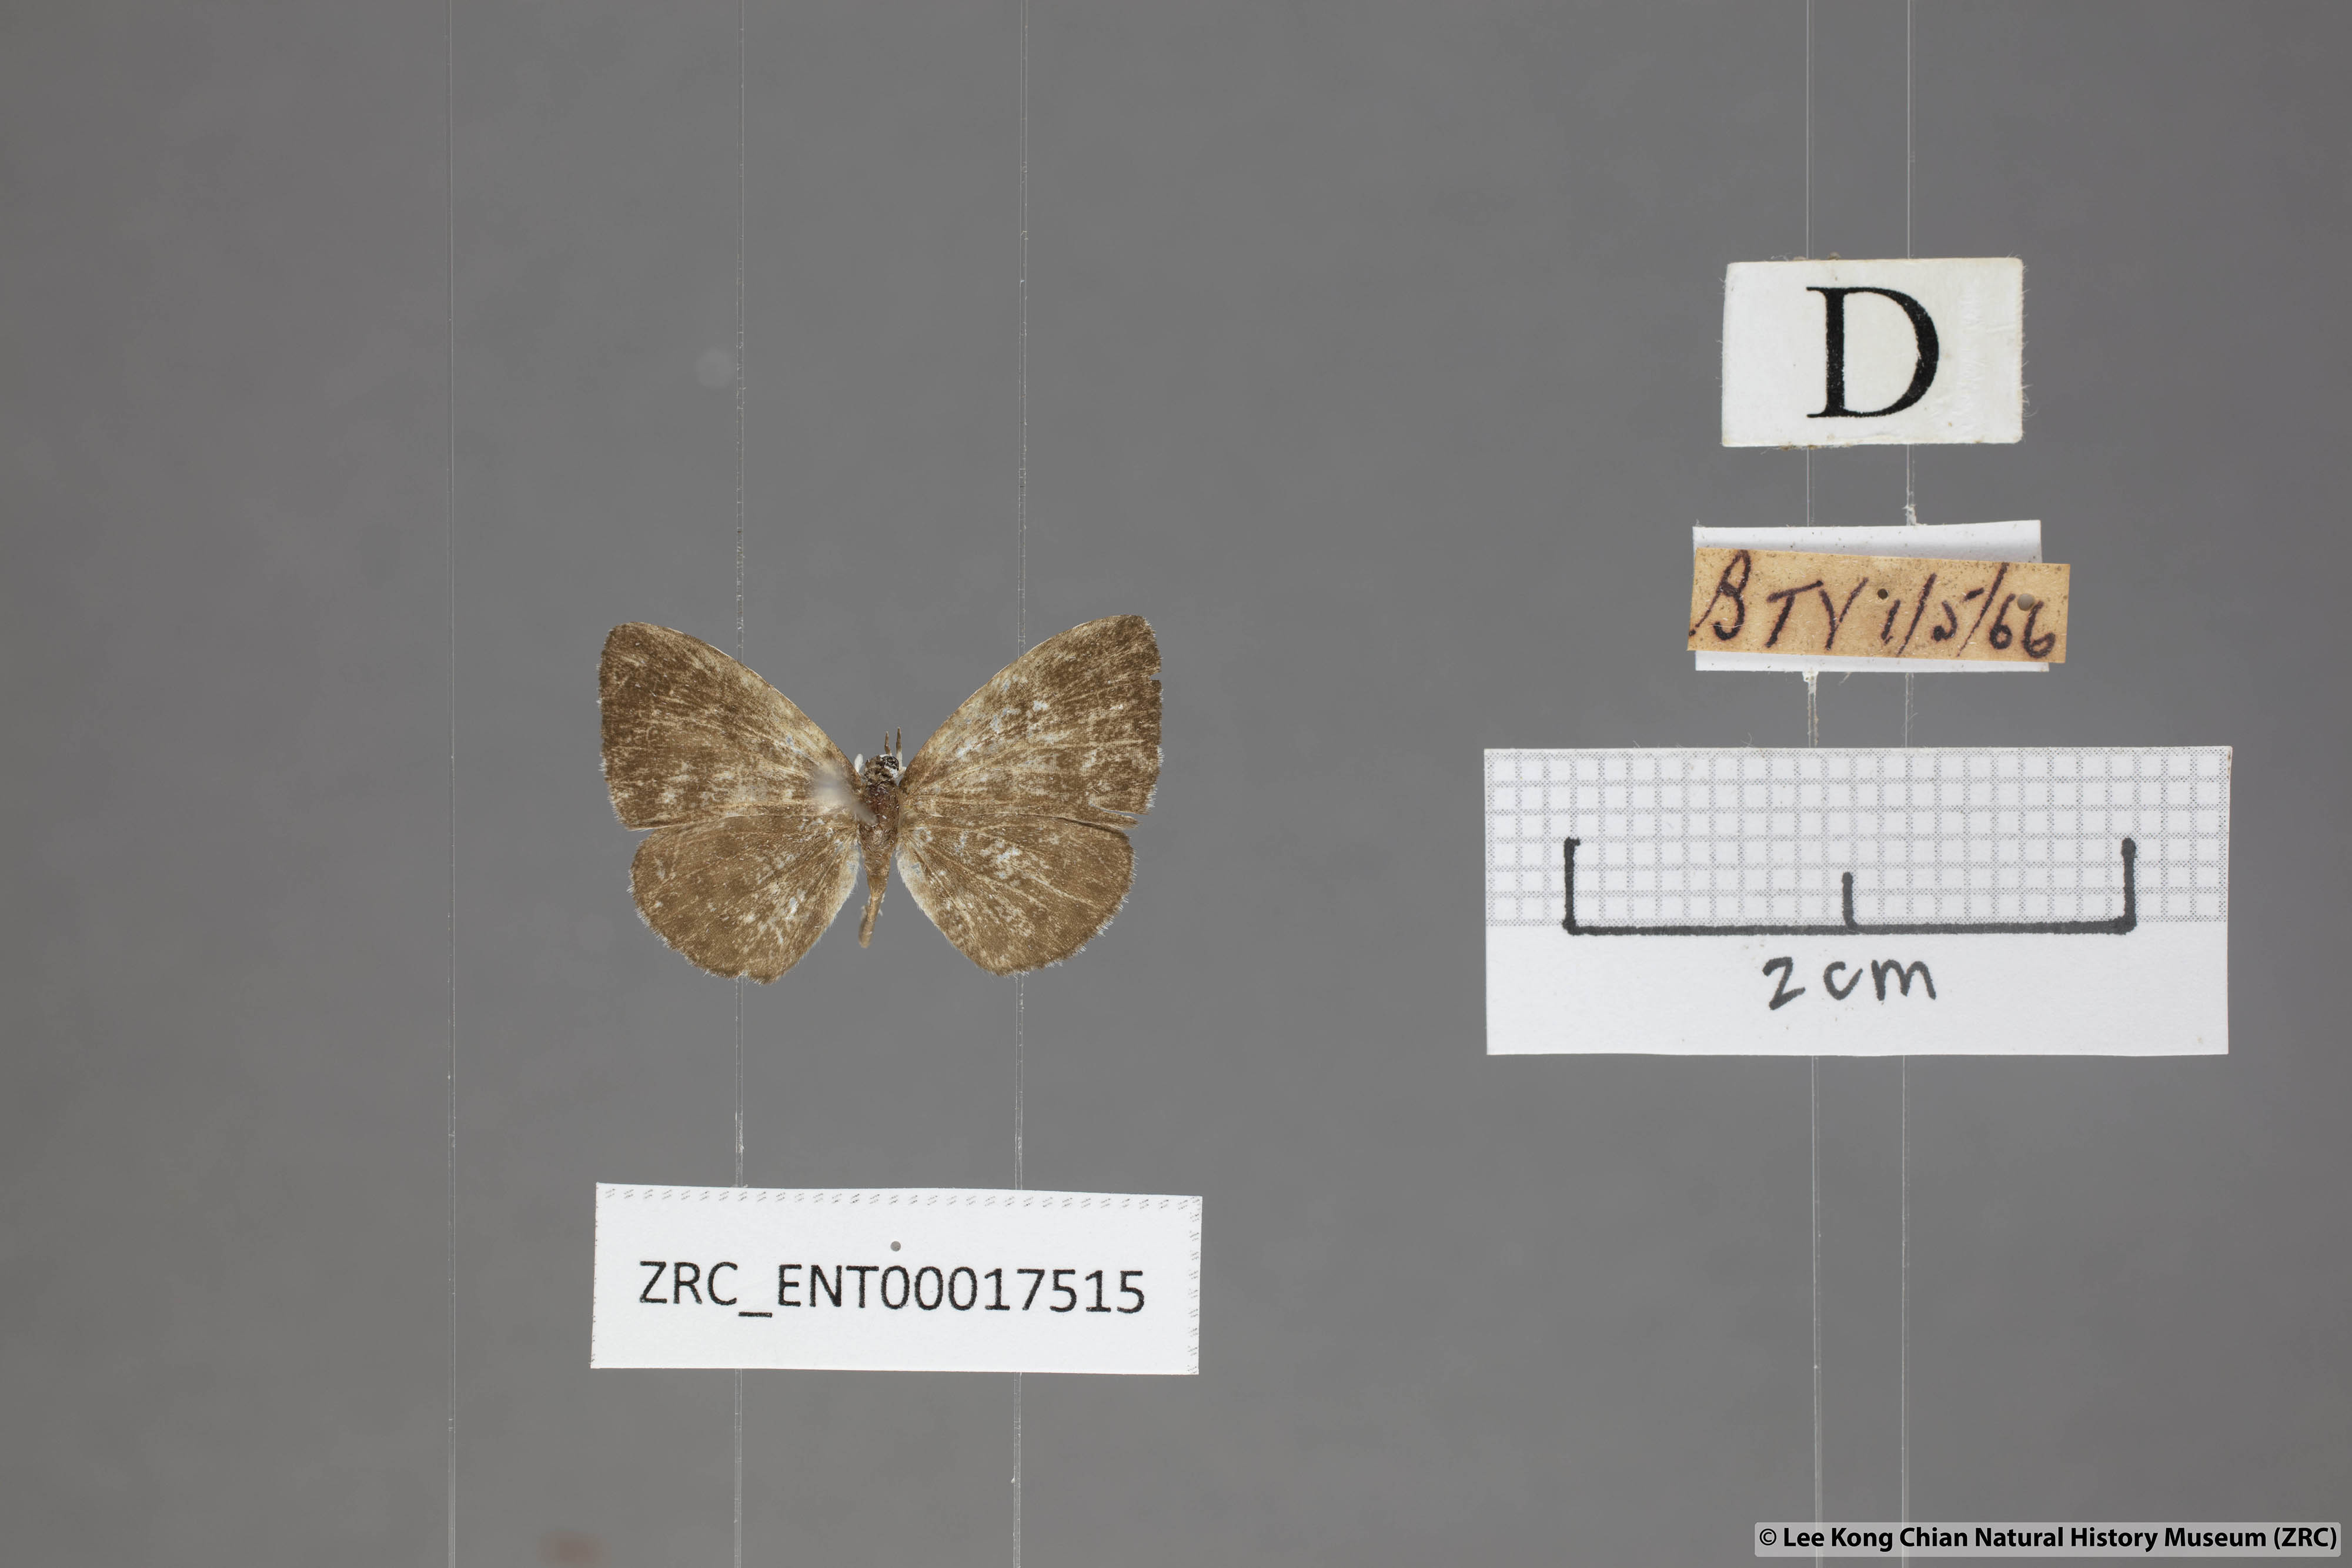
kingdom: Animalia
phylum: Arthropoda
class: Insecta
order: Lepidoptera
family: Lycaenidae
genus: Taraka
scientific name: Taraka hamada
